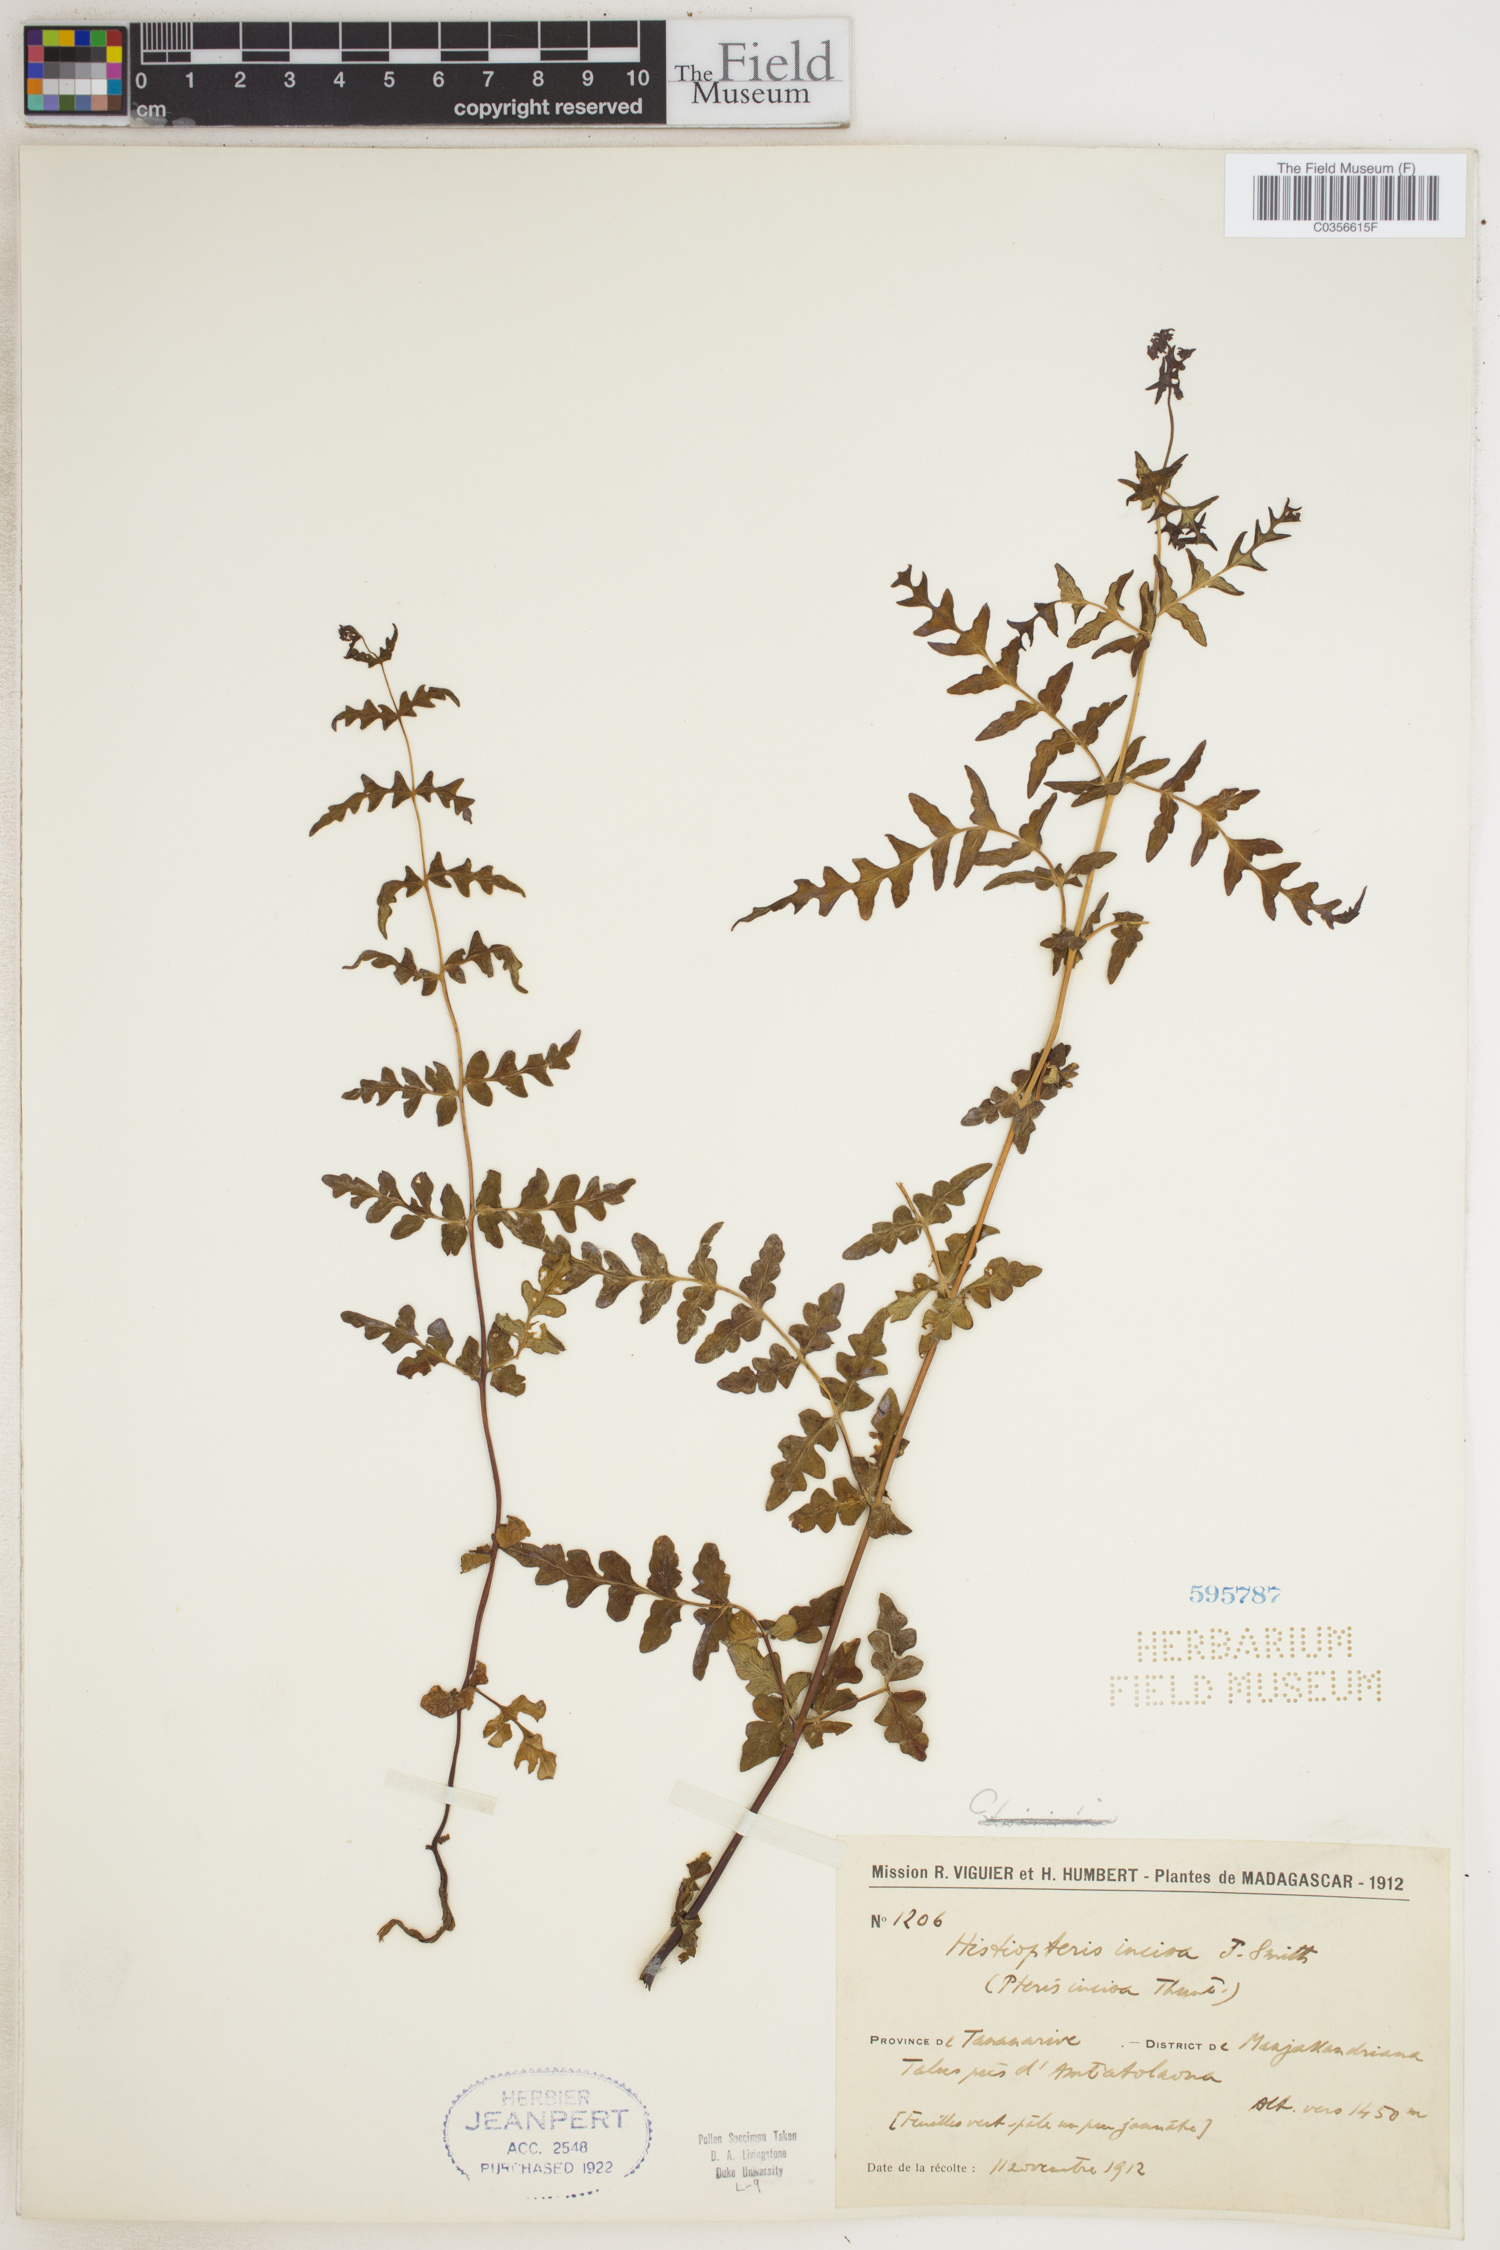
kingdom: Plantae
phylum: Tracheophyta
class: Polypodiopsida
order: Polypodiales
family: Dennstaedtiaceae
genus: Histiopteris
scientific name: Histiopteris incisa
